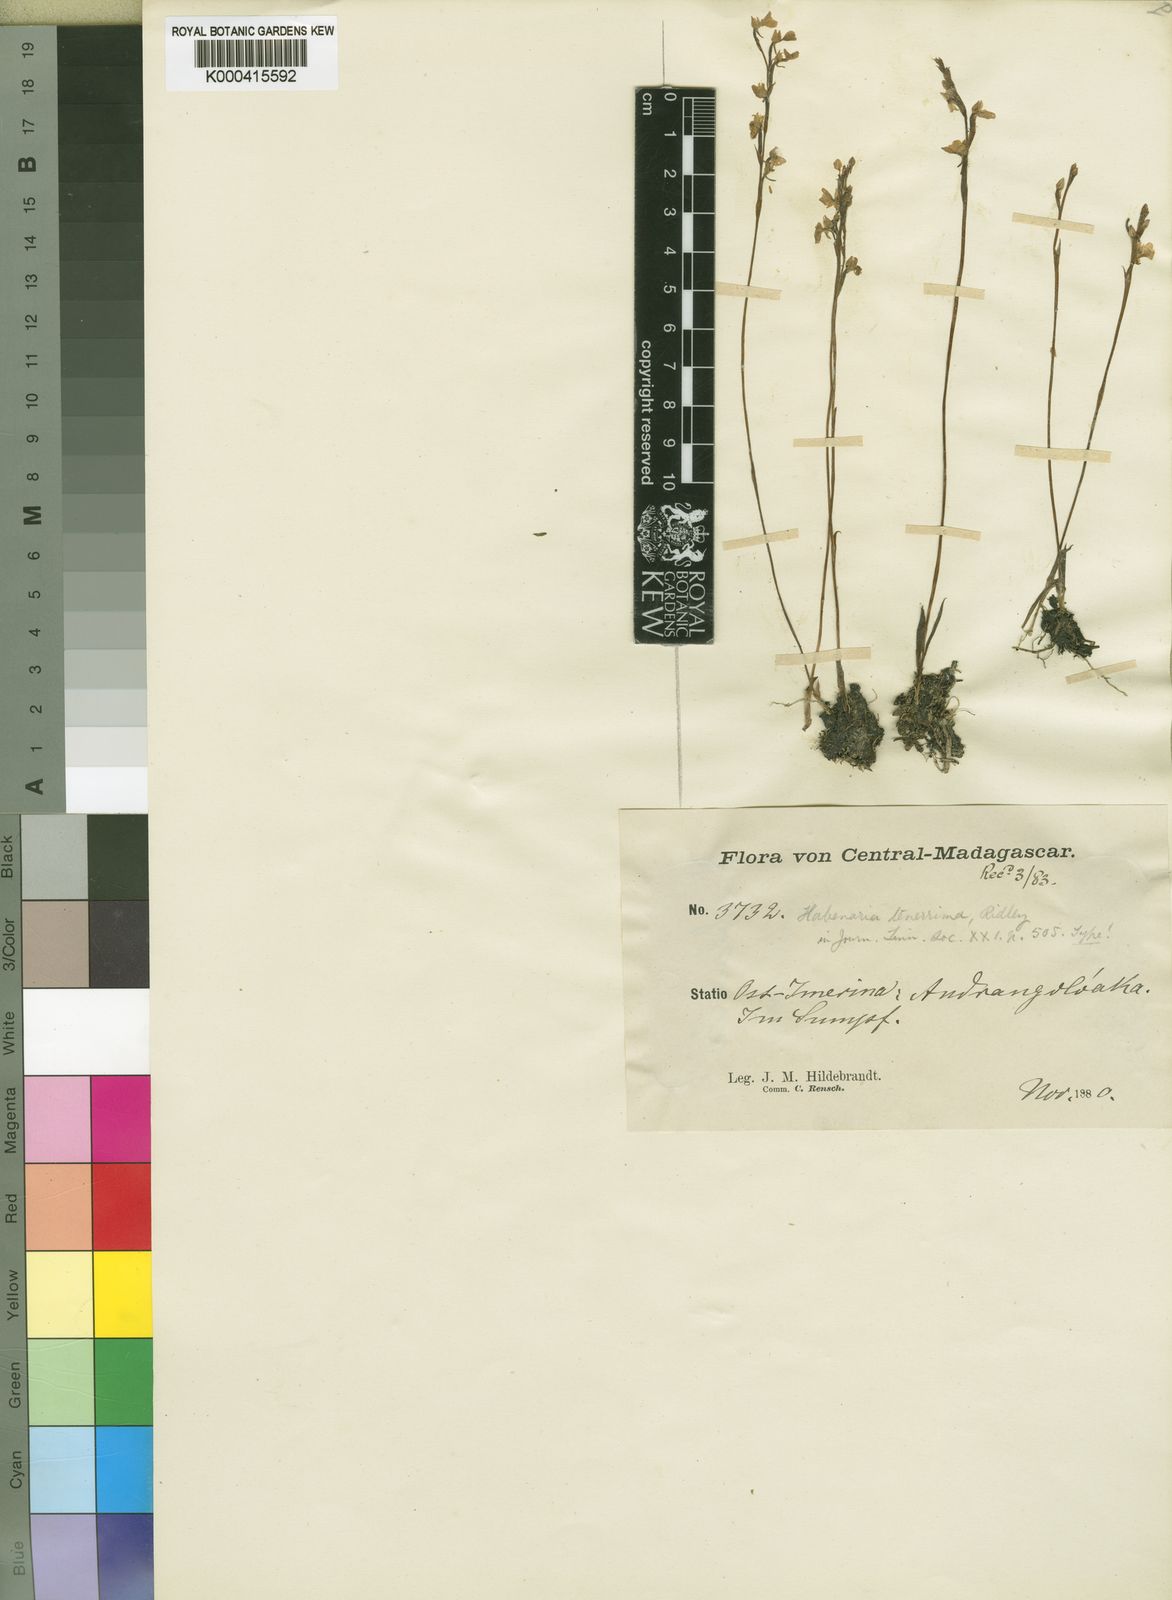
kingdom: Plantae
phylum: Tracheophyta
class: Liliopsida
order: Asparagales
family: Orchidaceae
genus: Cynorkis
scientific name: Cynorkis tenerrima
